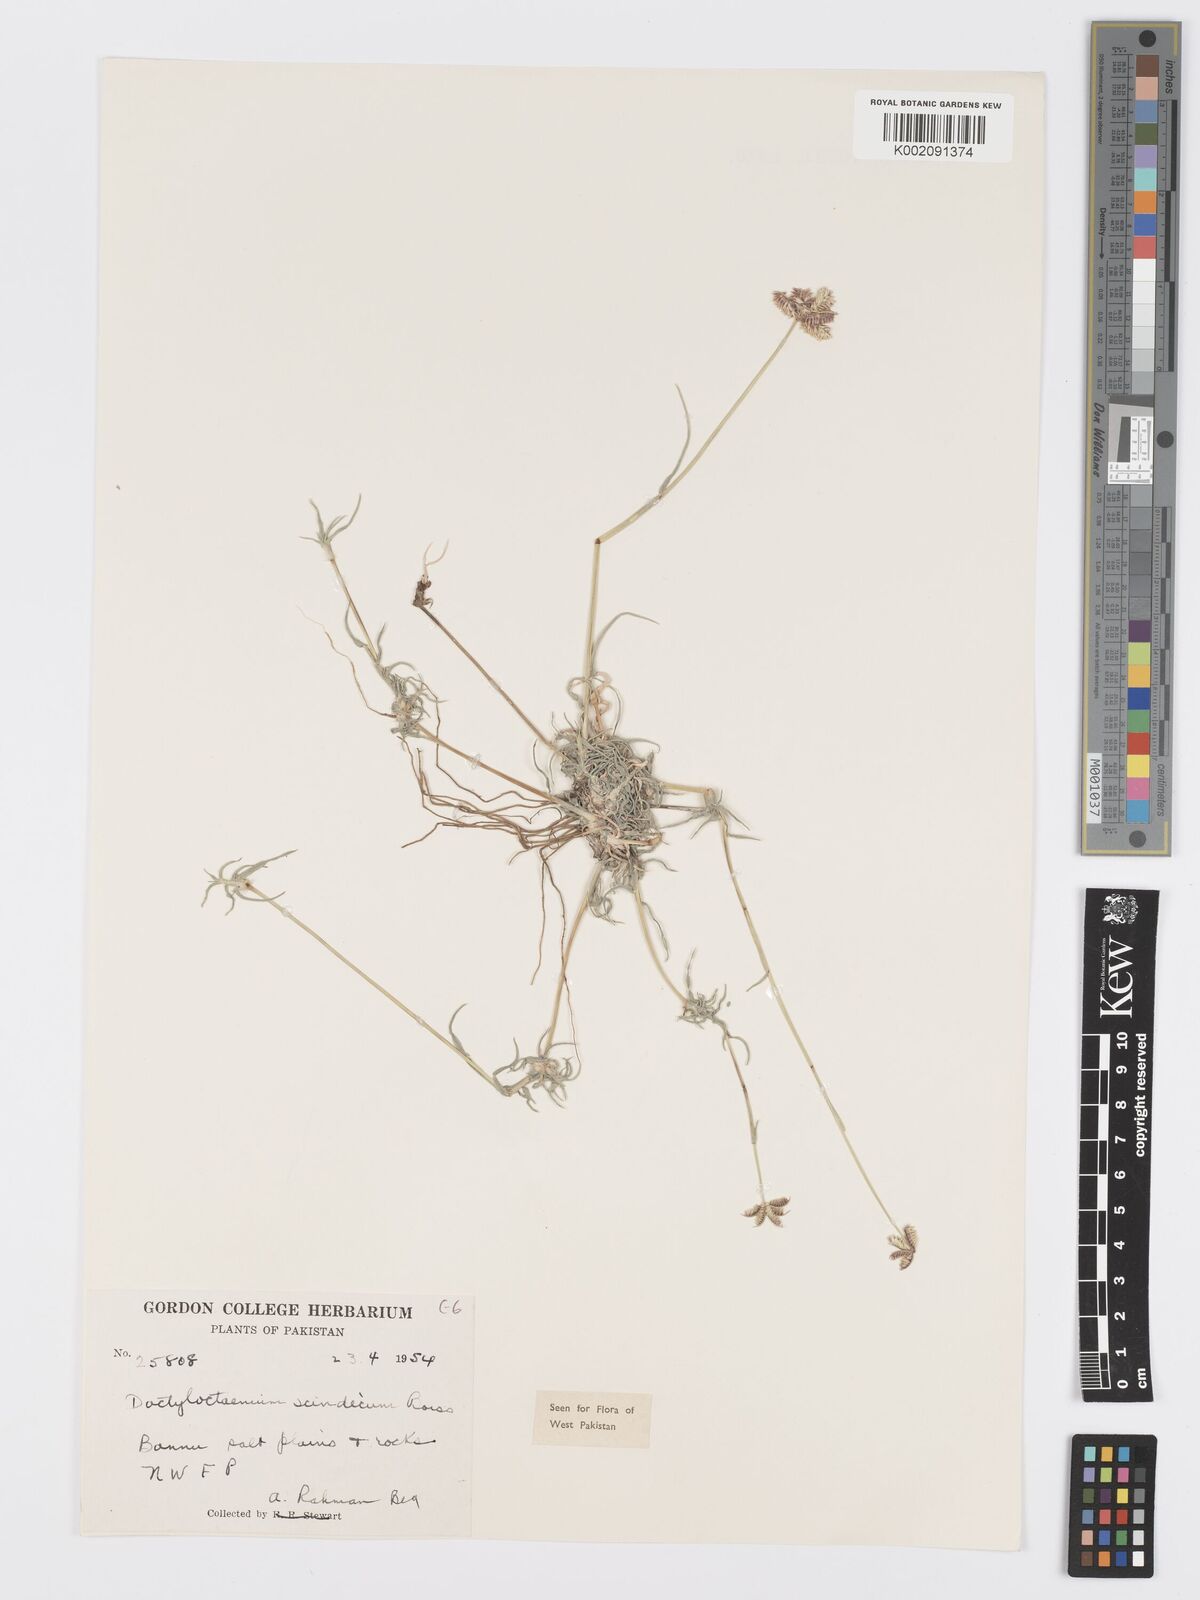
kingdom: Plantae
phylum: Tracheophyta
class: Liliopsida
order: Poales
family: Poaceae
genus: Dactyloctenium
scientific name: Dactyloctenium scindicum
